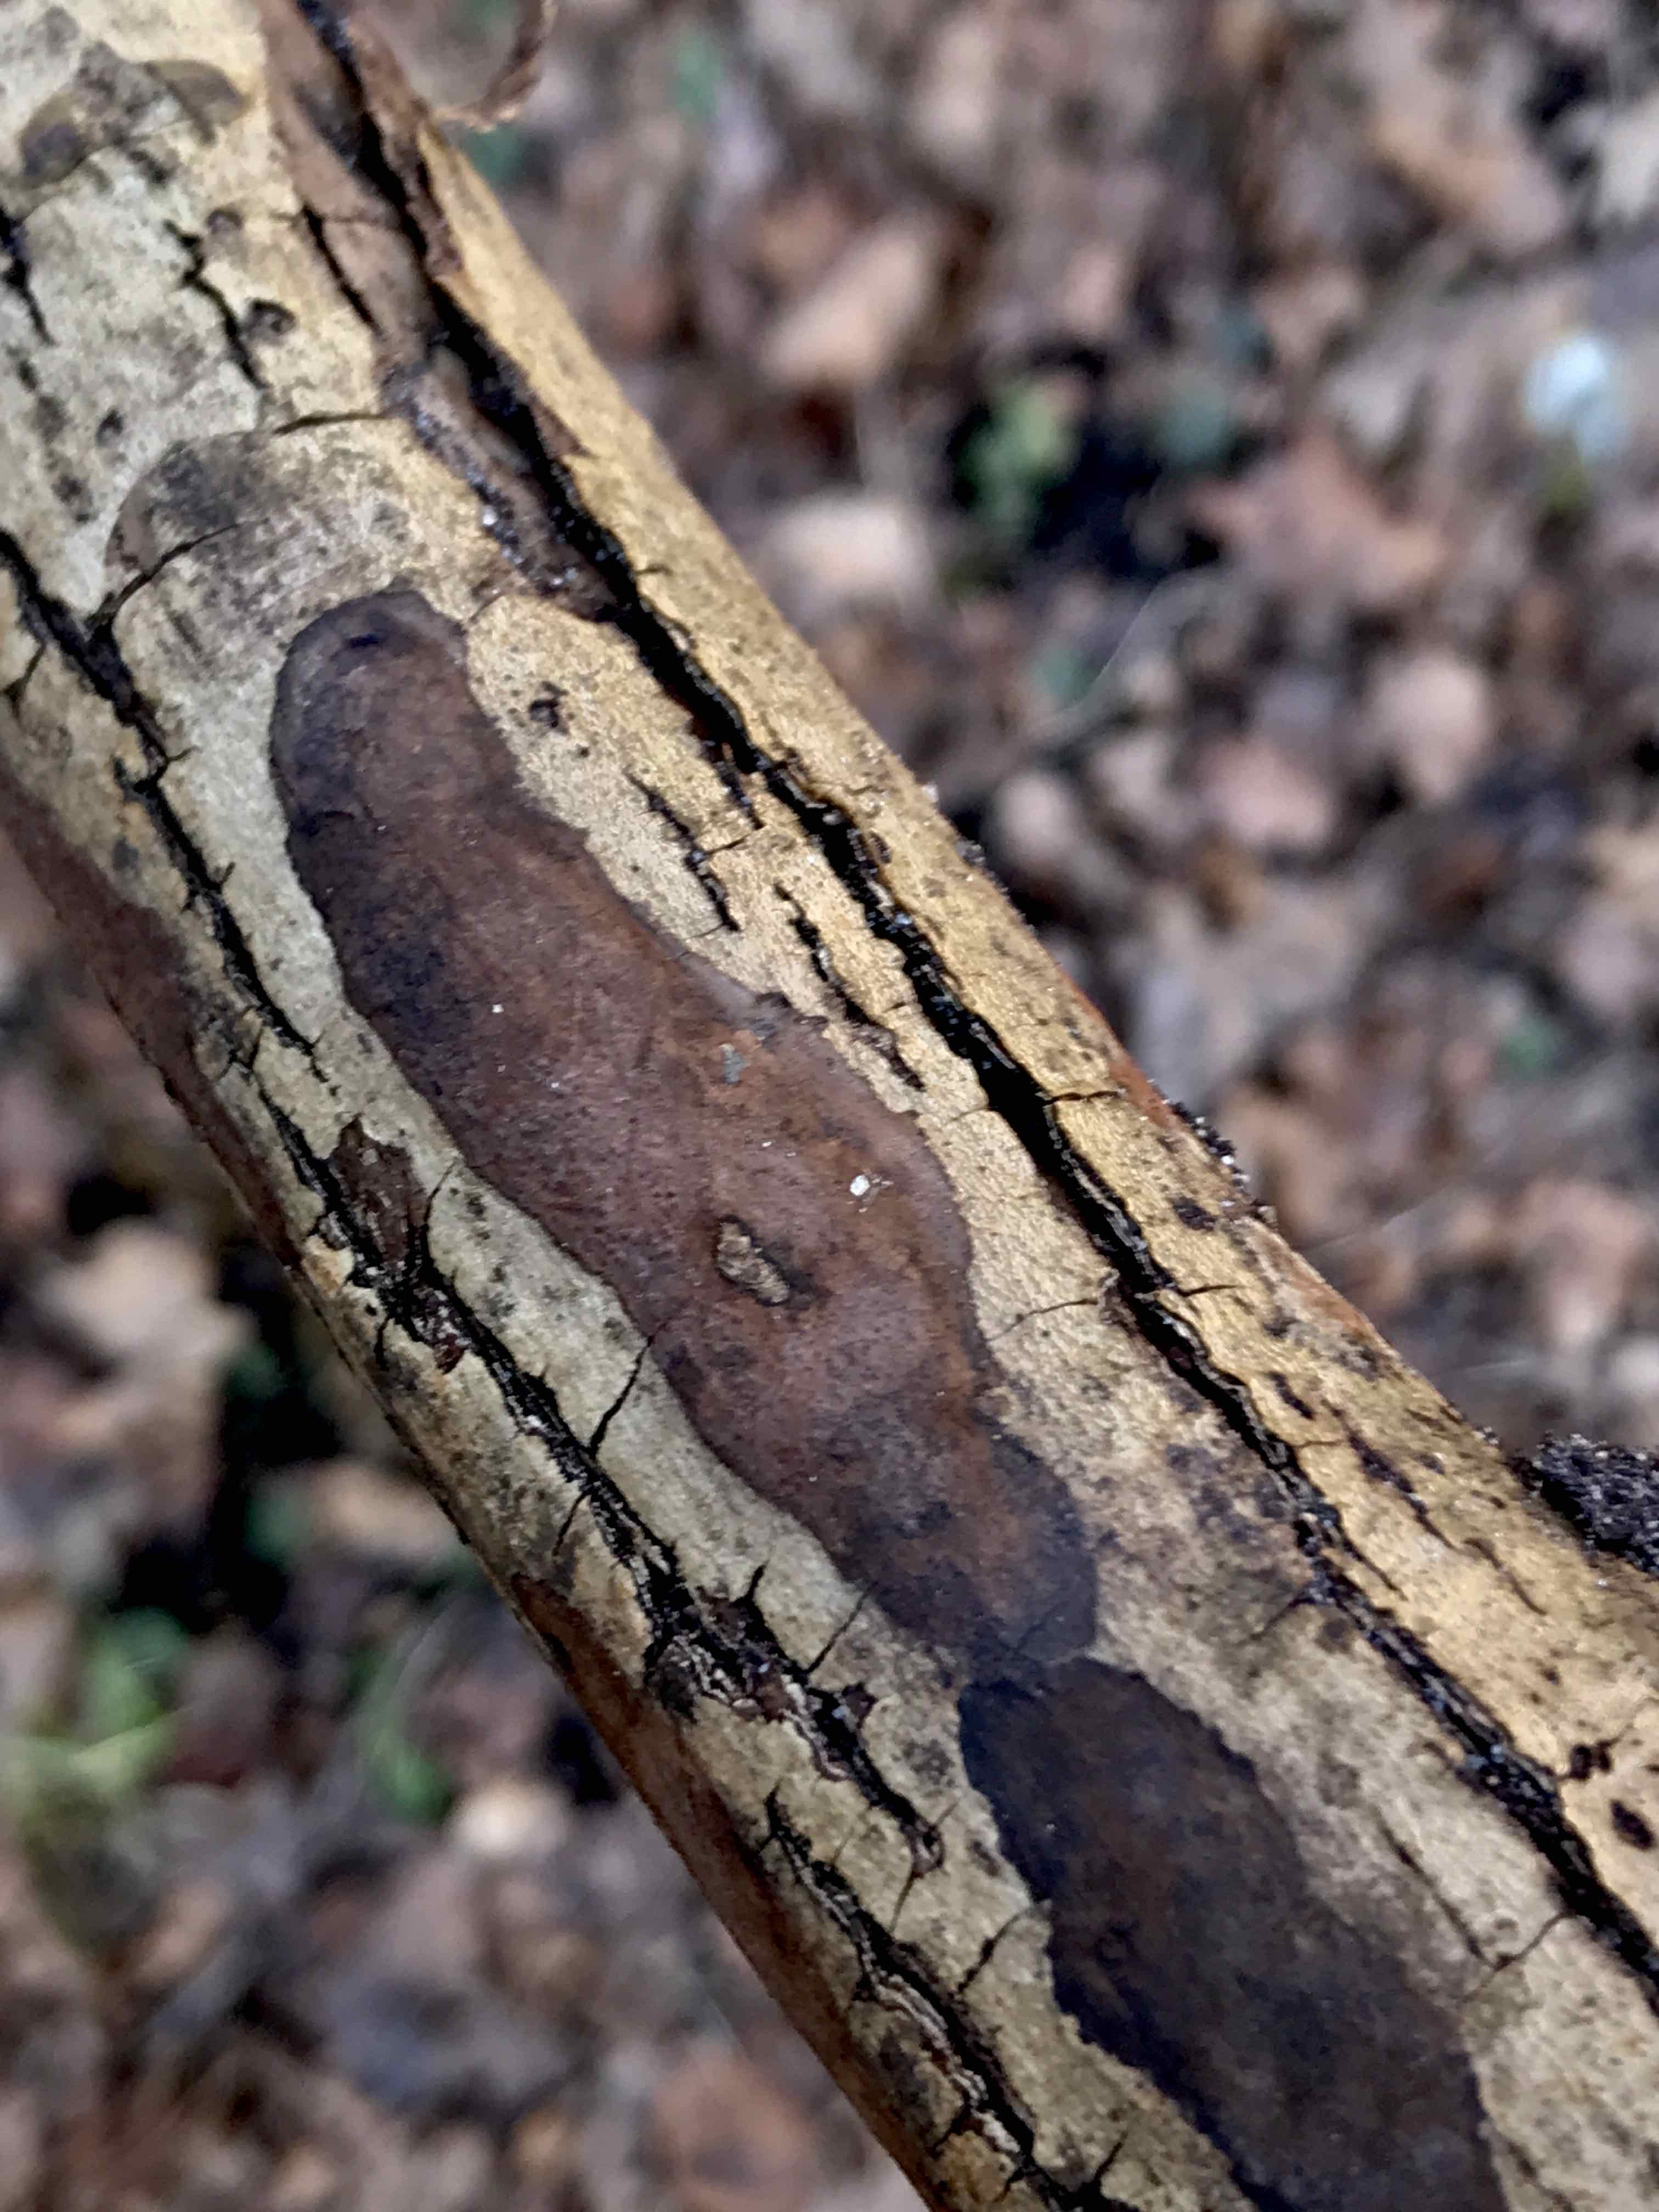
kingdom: Fungi
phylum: Ascomycota
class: Sordariomycetes
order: Xylariales
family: Hypoxylaceae
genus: Hypoxylon
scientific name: Hypoxylon petriniae
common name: nedsænket kulbær
